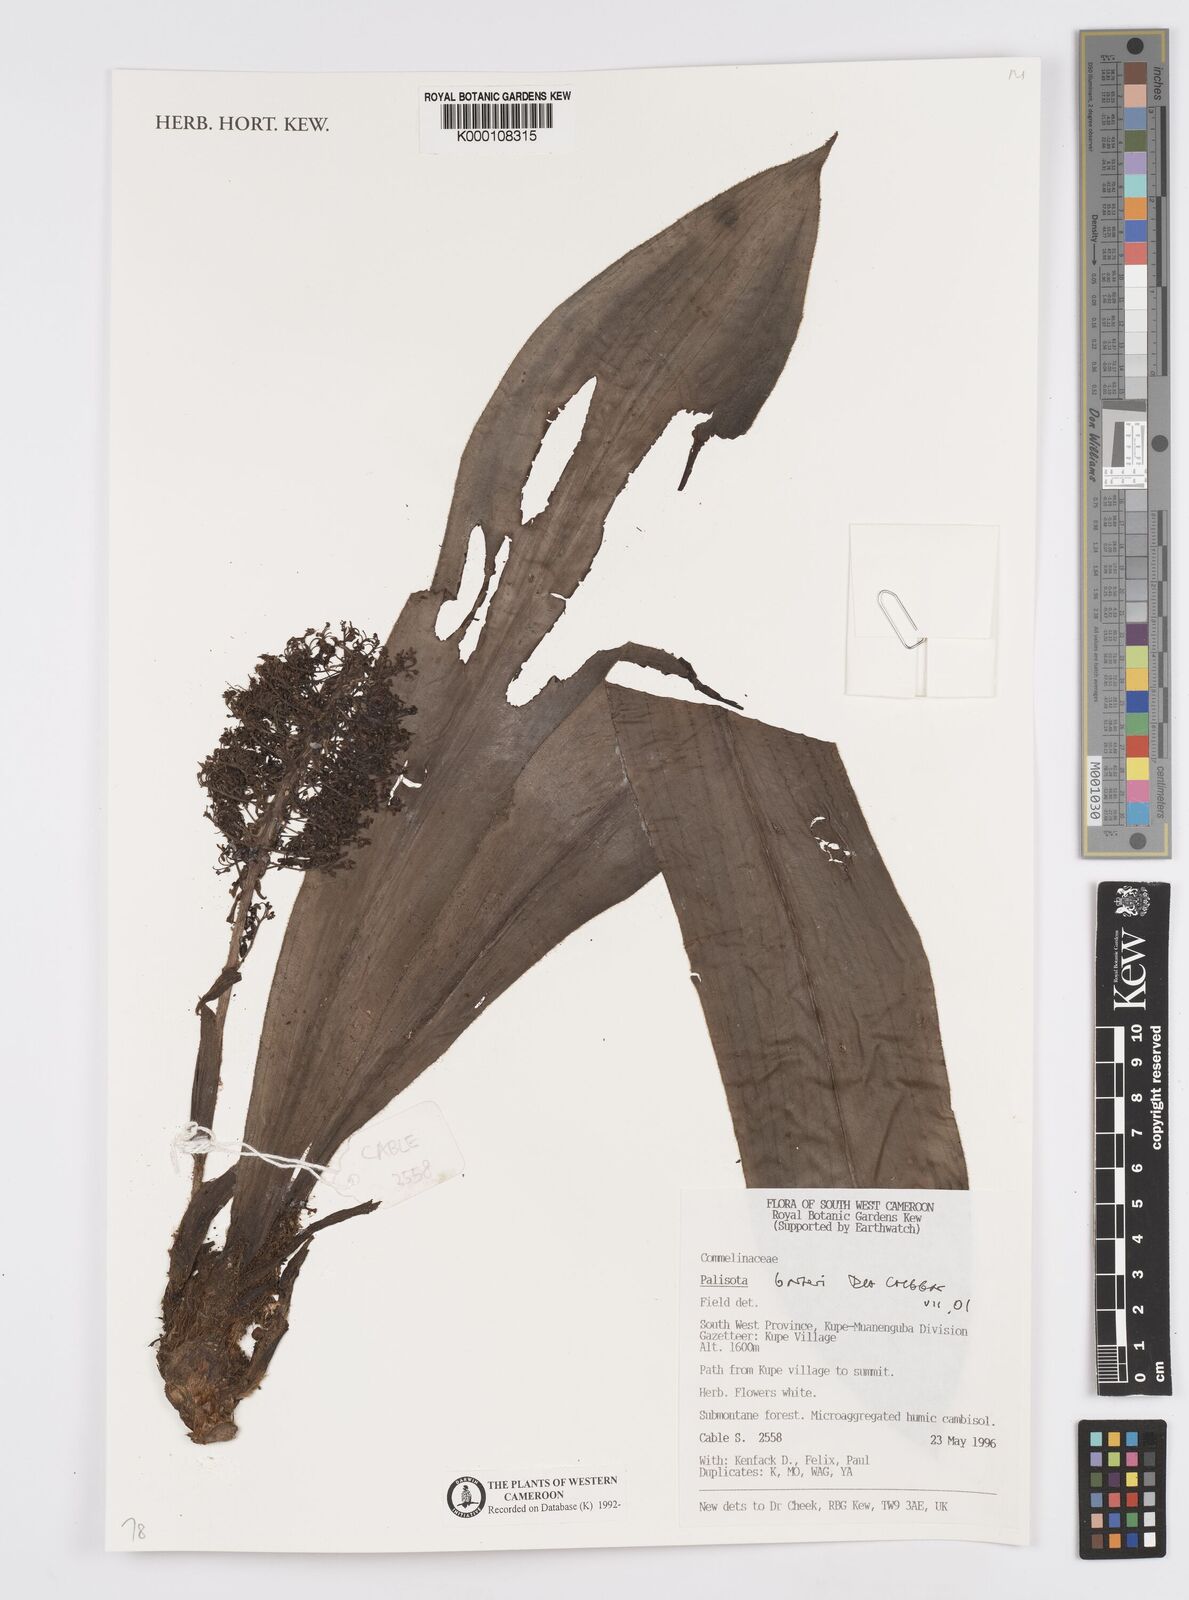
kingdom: Plantae
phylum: Tracheophyta
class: Liliopsida
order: Commelinales
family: Commelinaceae
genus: Palisota
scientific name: Palisota barteri
